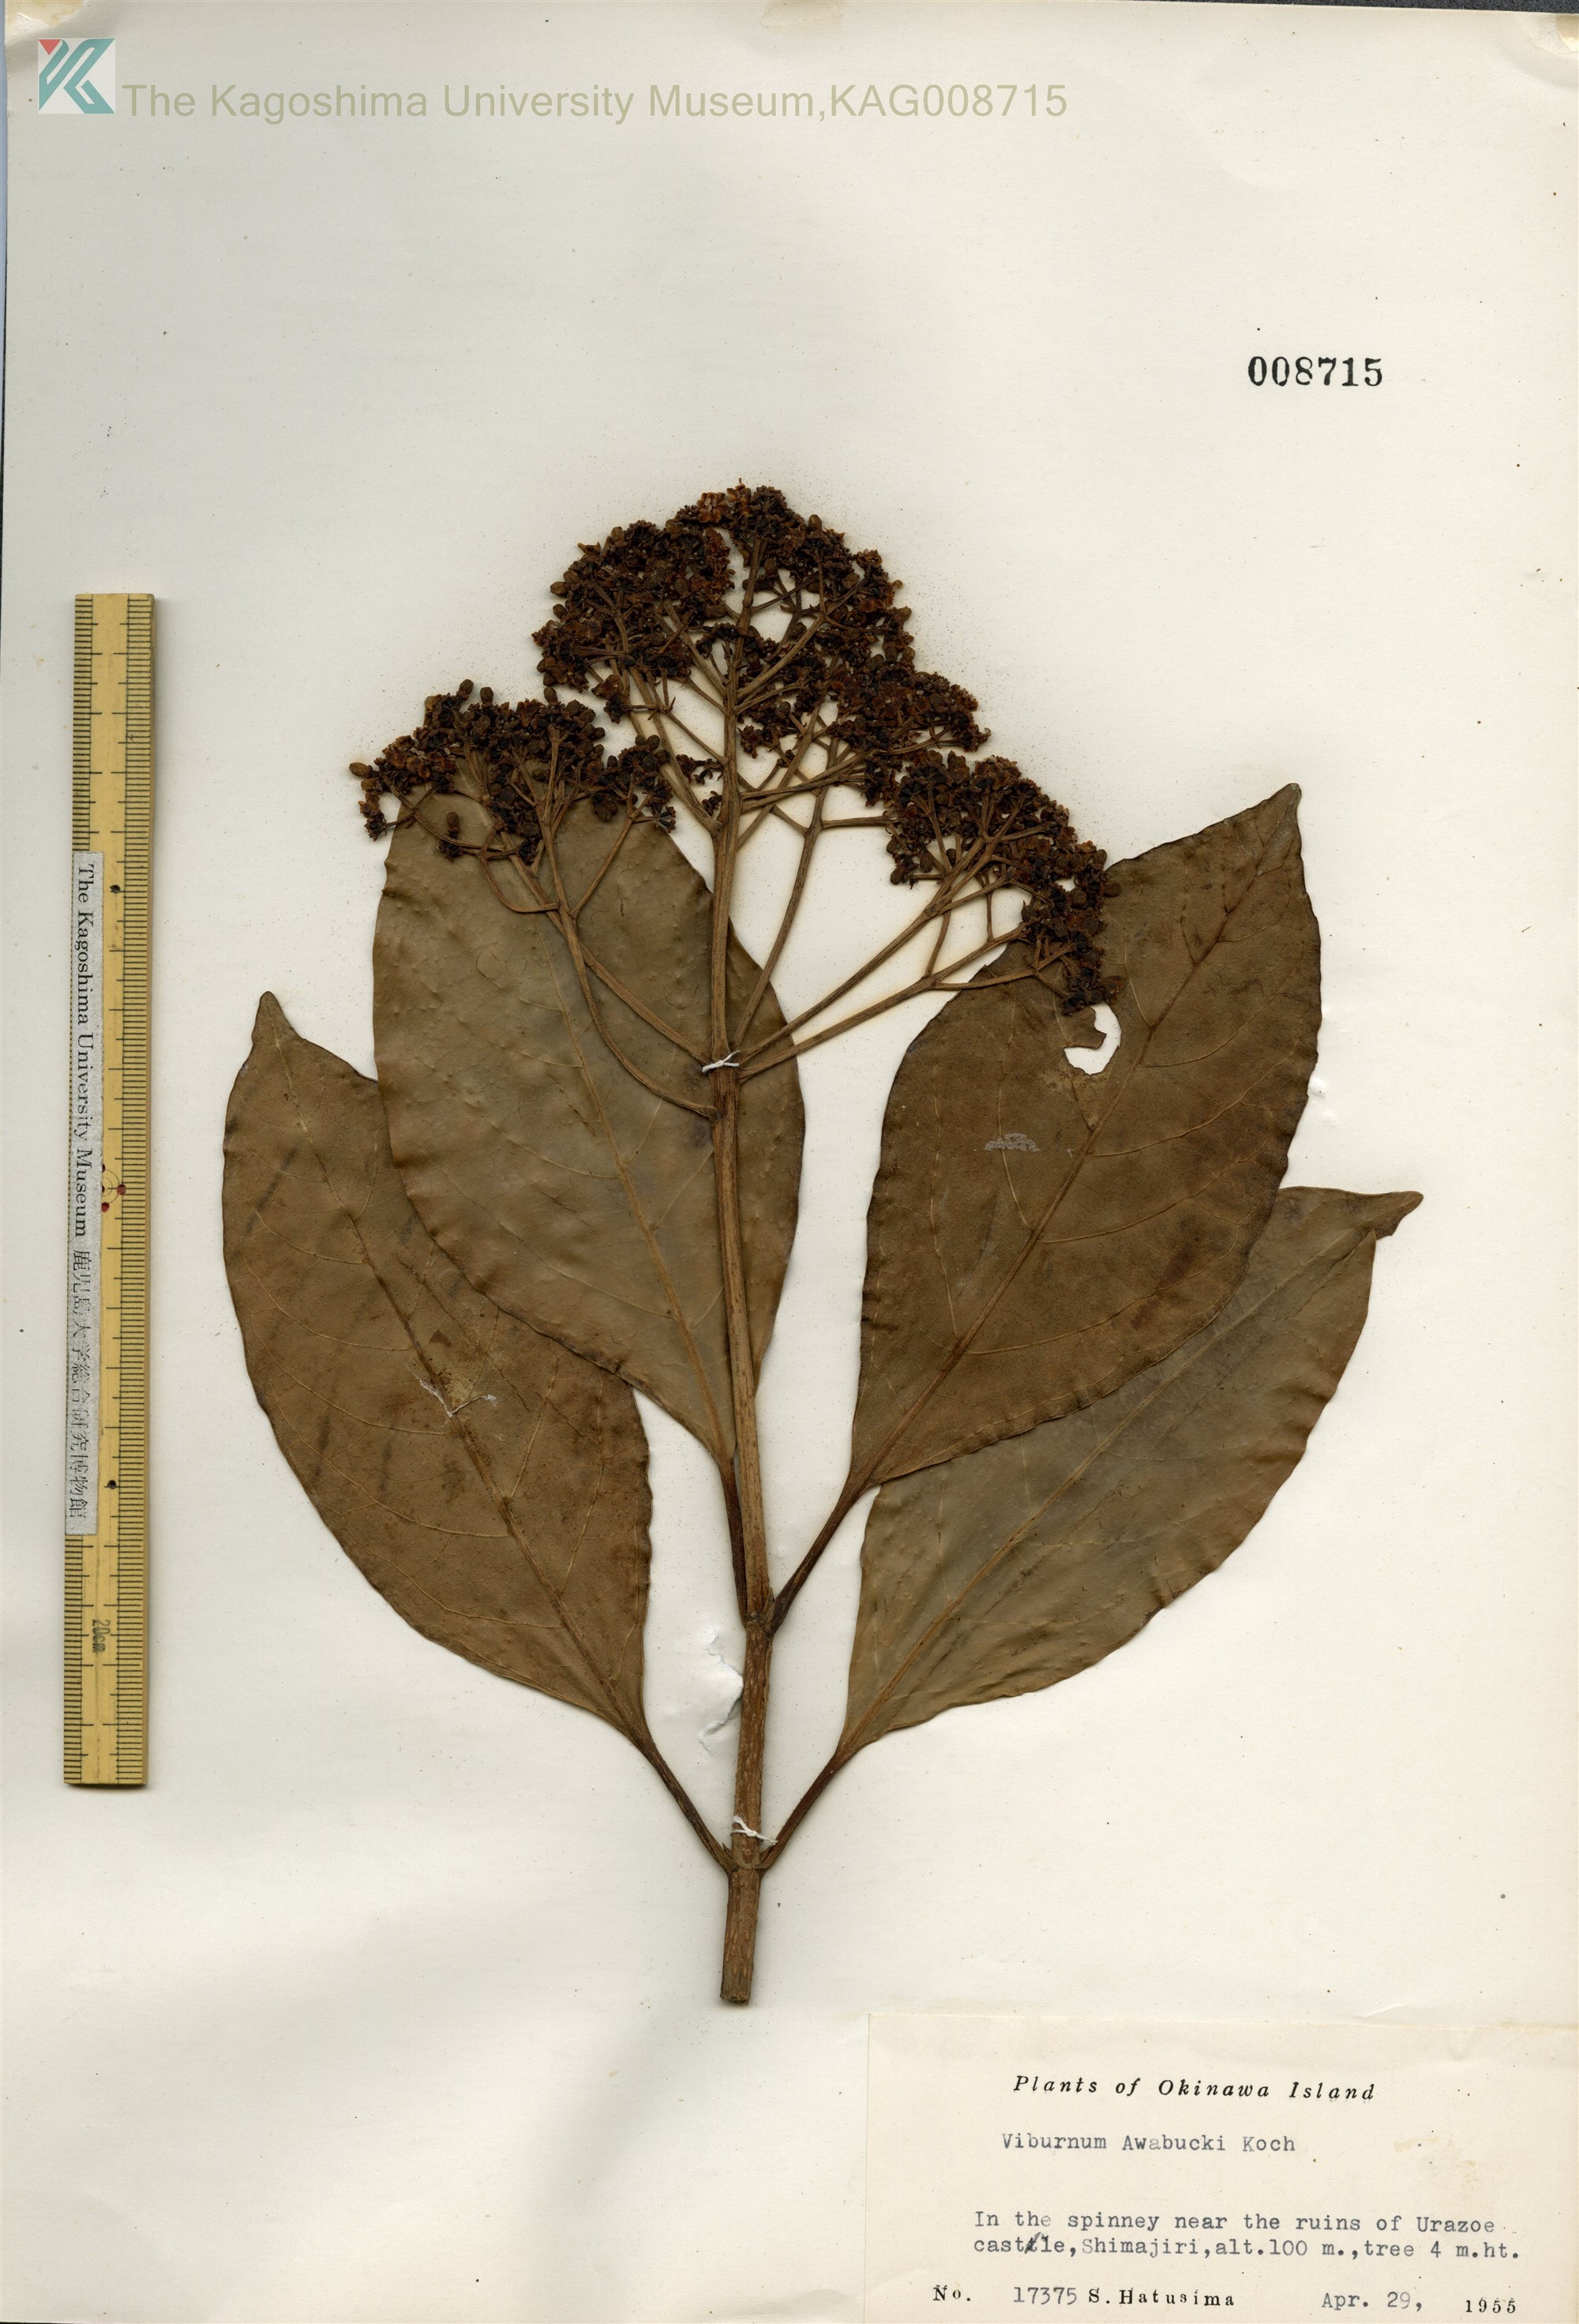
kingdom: Plantae
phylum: Tracheophyta
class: Magnoliopsida
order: Dipsacales
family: Viburnaceae
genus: Viburnum
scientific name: Viburnum odoratissimum
